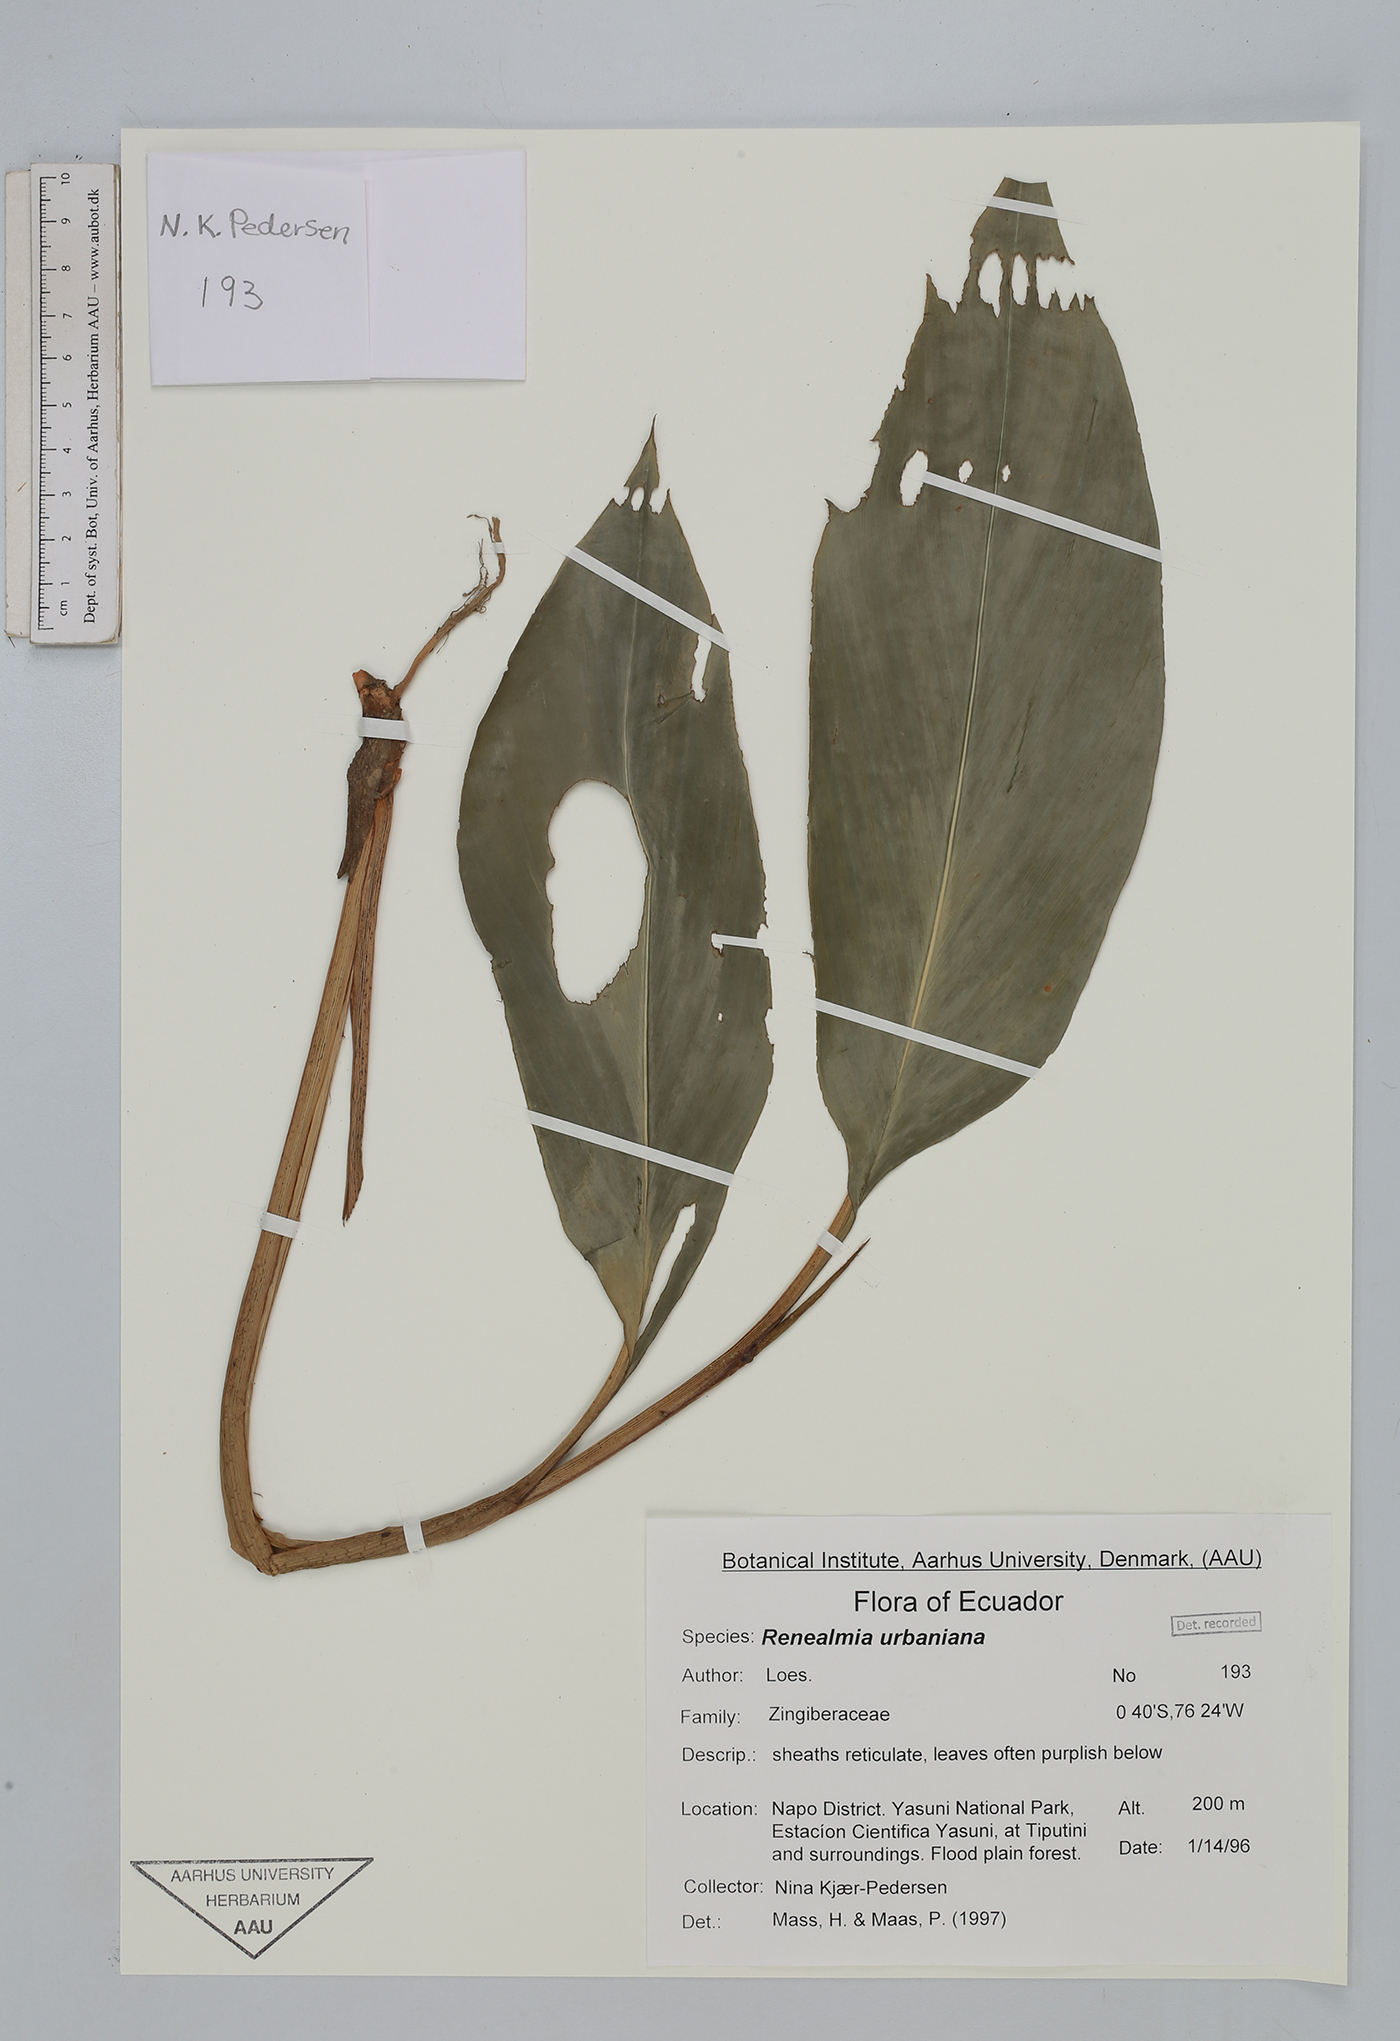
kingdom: Plantae
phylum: Tracheophyta
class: Liliopsida
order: Zingiberales
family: Zingiberaceae
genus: Renealmia
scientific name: Renealmia urbaniana
